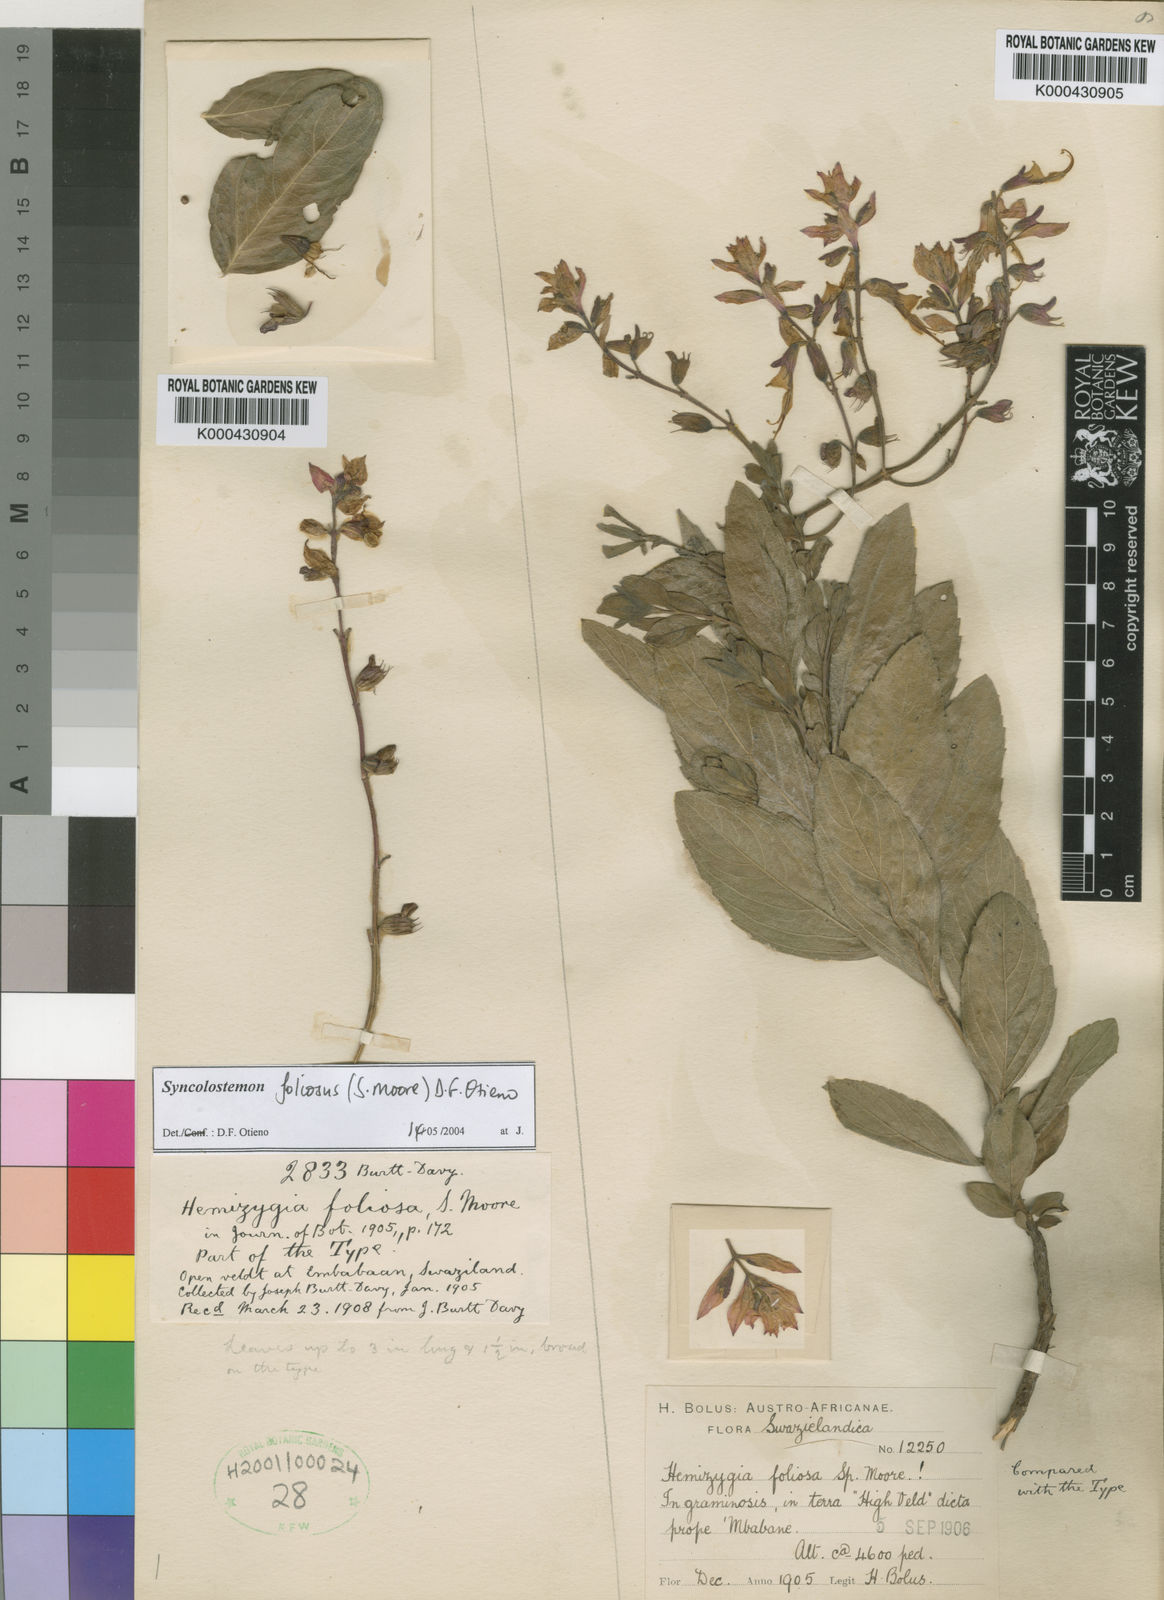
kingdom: Plantae
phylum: Tracheophyta
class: Magnoliopsida
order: Lamiales
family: Lamiaceae
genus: Syncolostemon
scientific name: Syncolostemon foliosus
